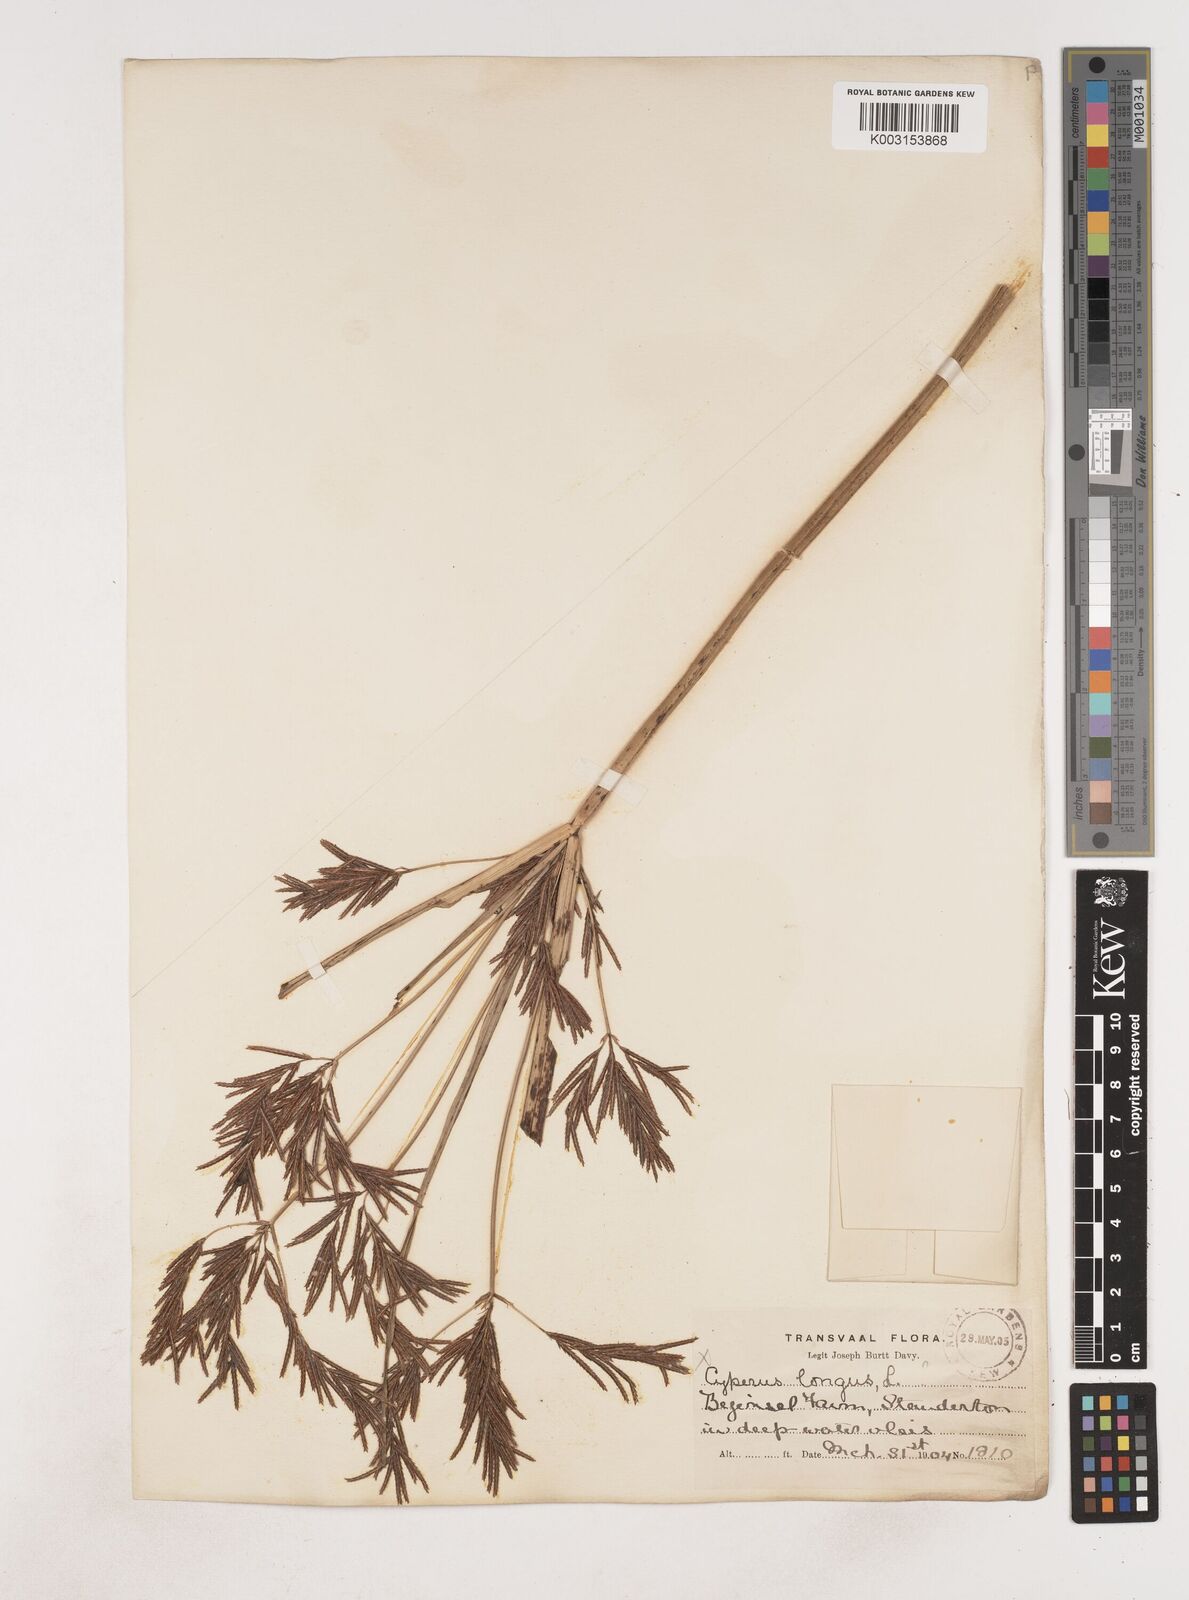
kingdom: Plantae
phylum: Tracheophyta
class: Liliopsida
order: Poales
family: Cyperaceae
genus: Cyperus
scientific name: Cyperus
